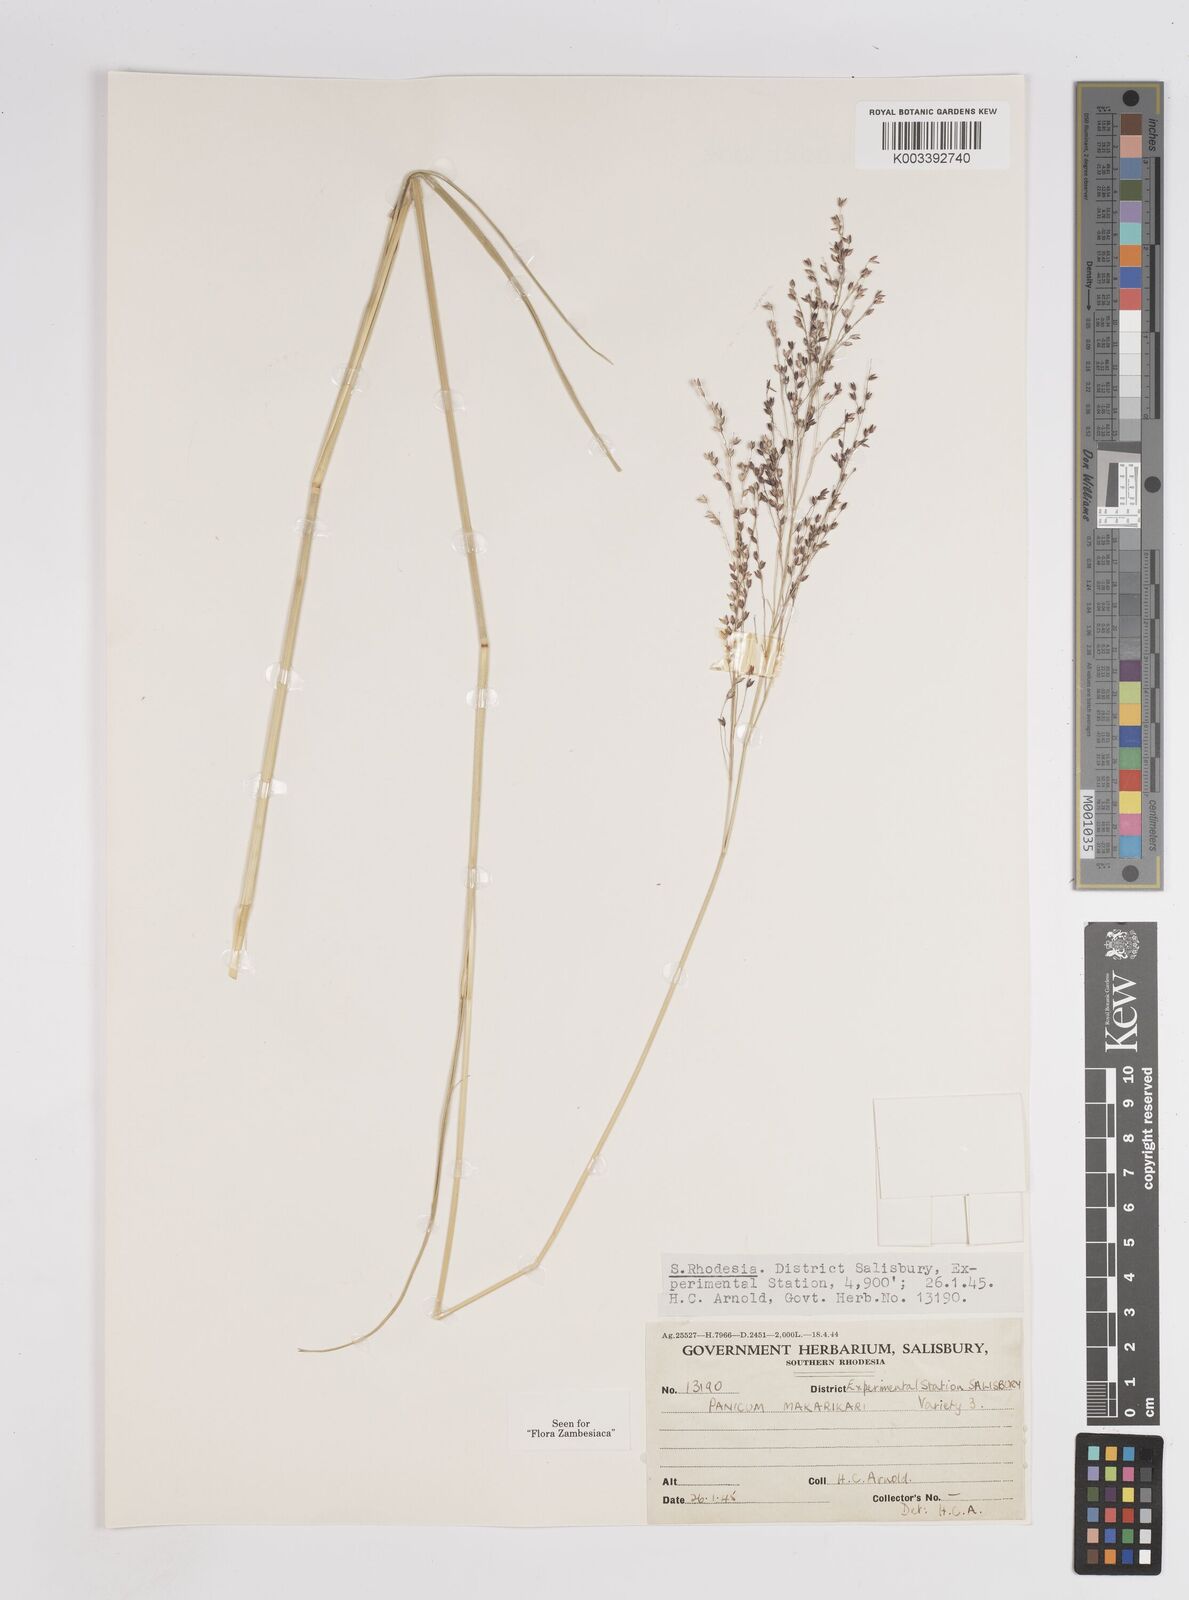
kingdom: Plantae
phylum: Tracheophyta
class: Liliopsida
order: Poales
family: Poaceae
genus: Panicum
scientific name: Panicum coloratum
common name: Kleingrass
